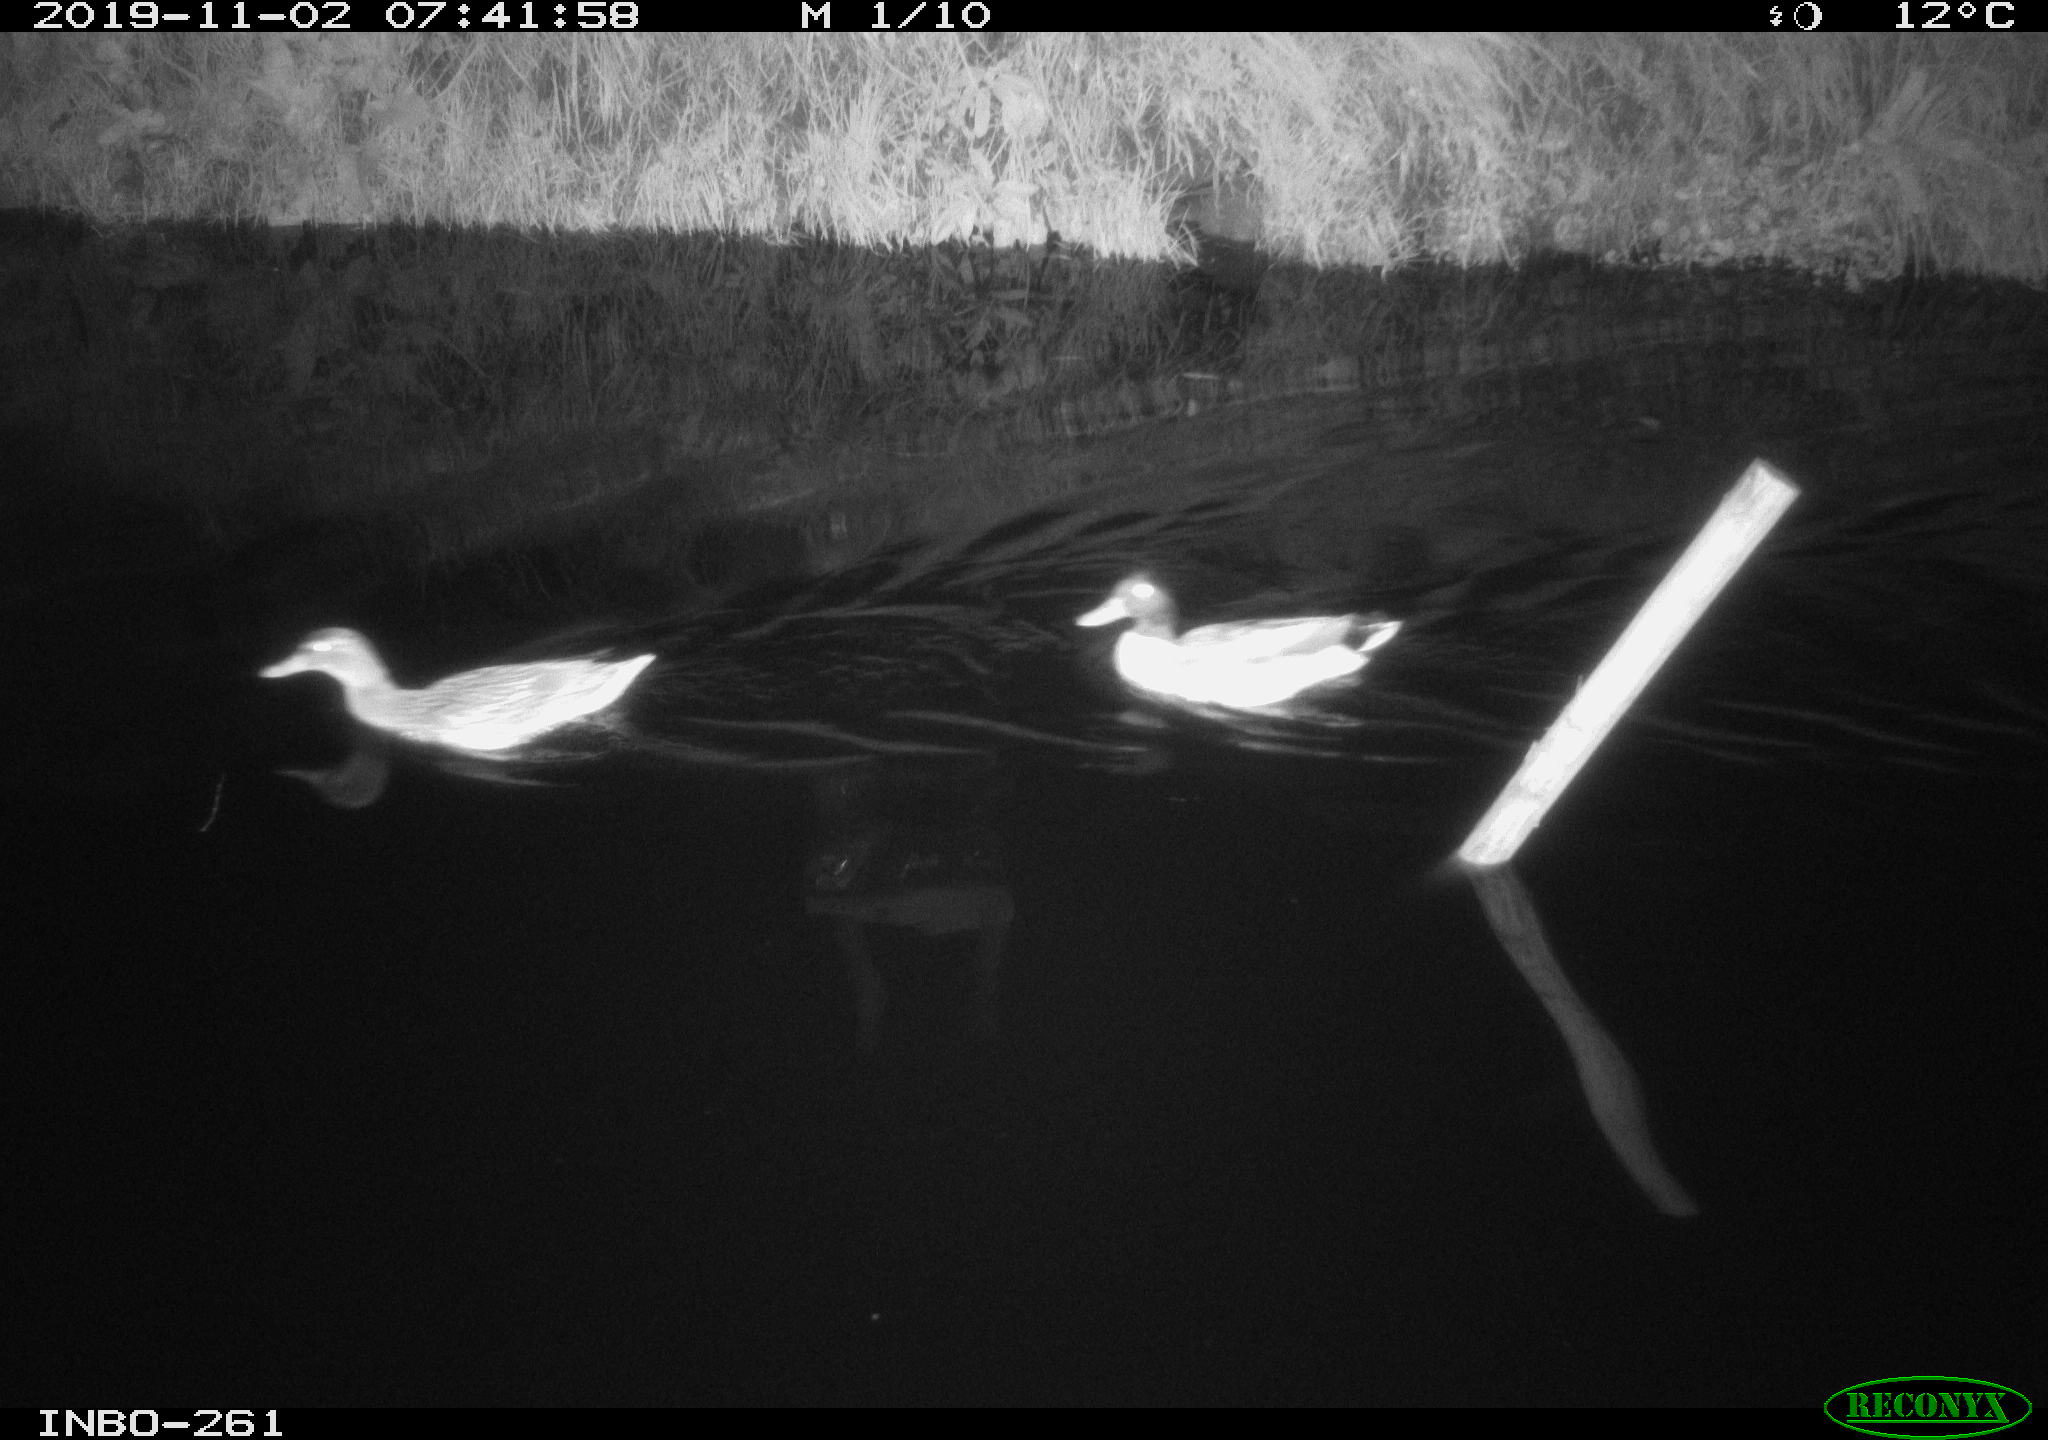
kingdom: Animalia
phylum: Chordata
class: Aves
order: Anseriformes
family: Anatidae
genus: Anas
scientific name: Anas platyrhynchos
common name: Mallard
